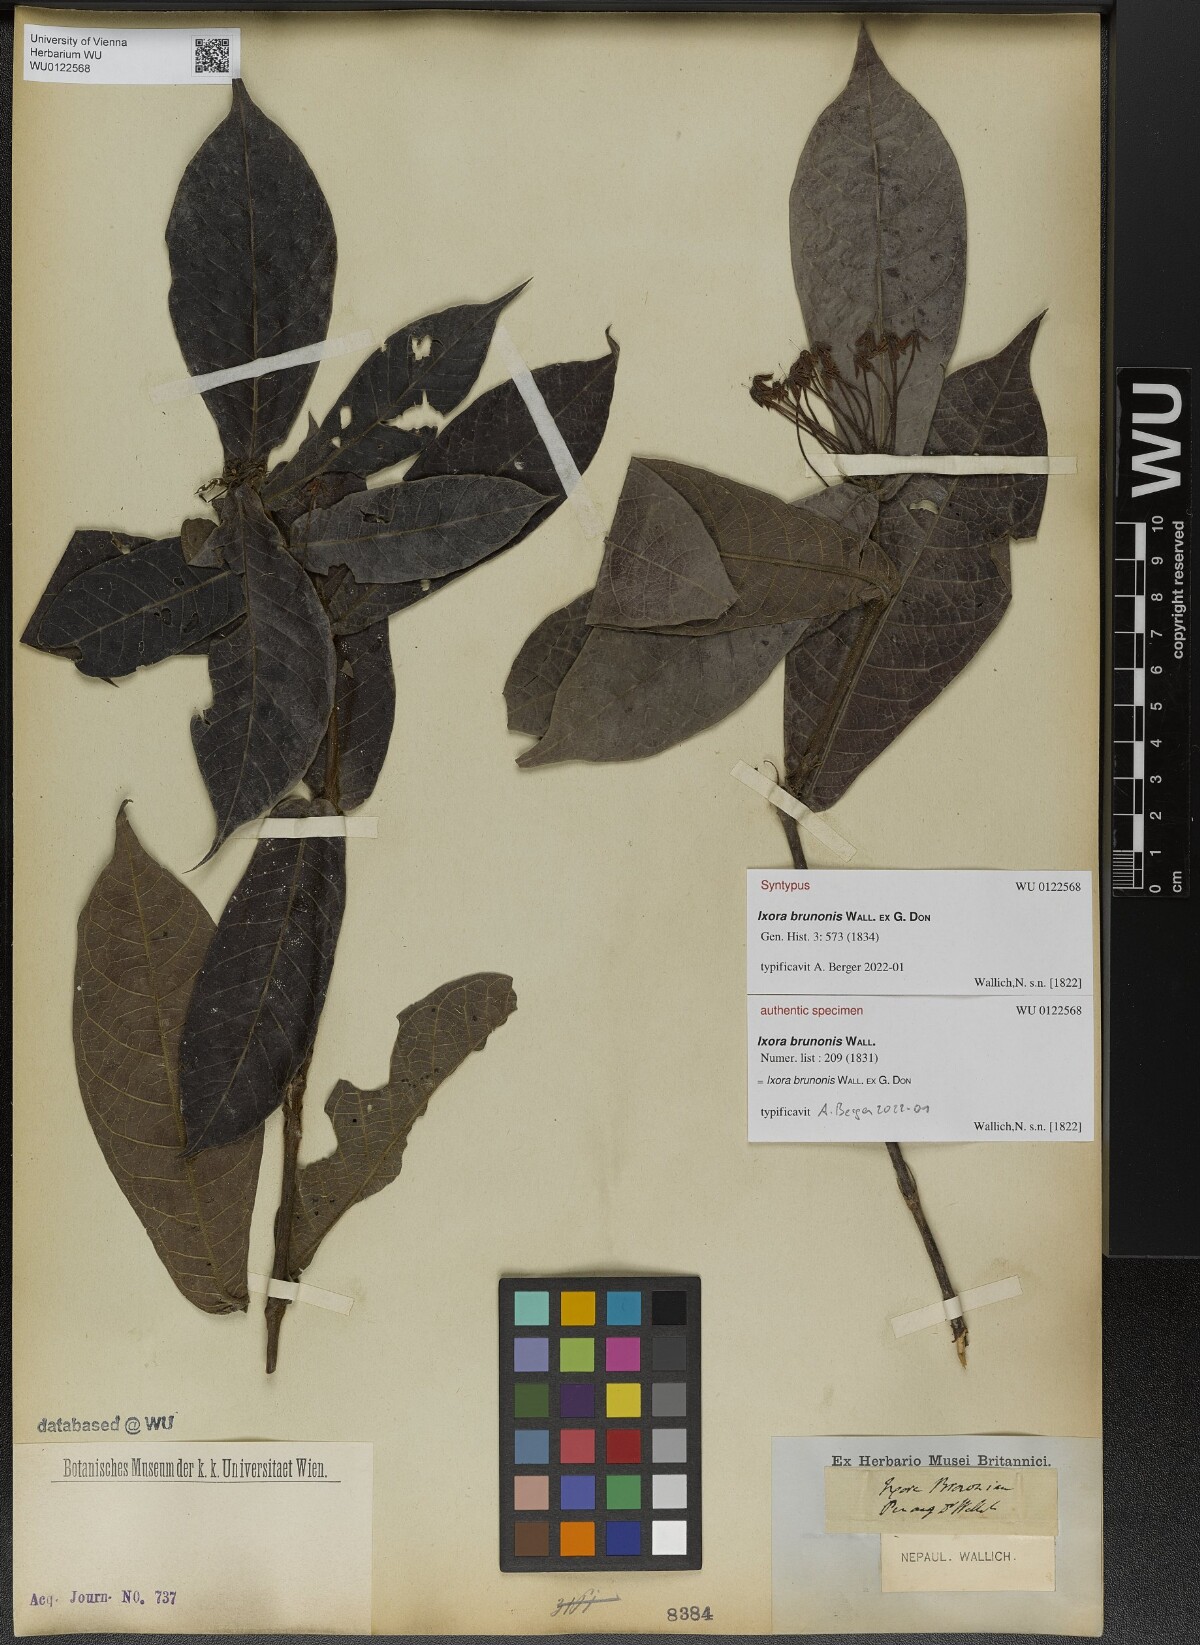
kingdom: Plantae
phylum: Tracheophyta
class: Magnoliopsida
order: Gentianales
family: Rubiaceae
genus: Ixora
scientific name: Ixora brunonis
